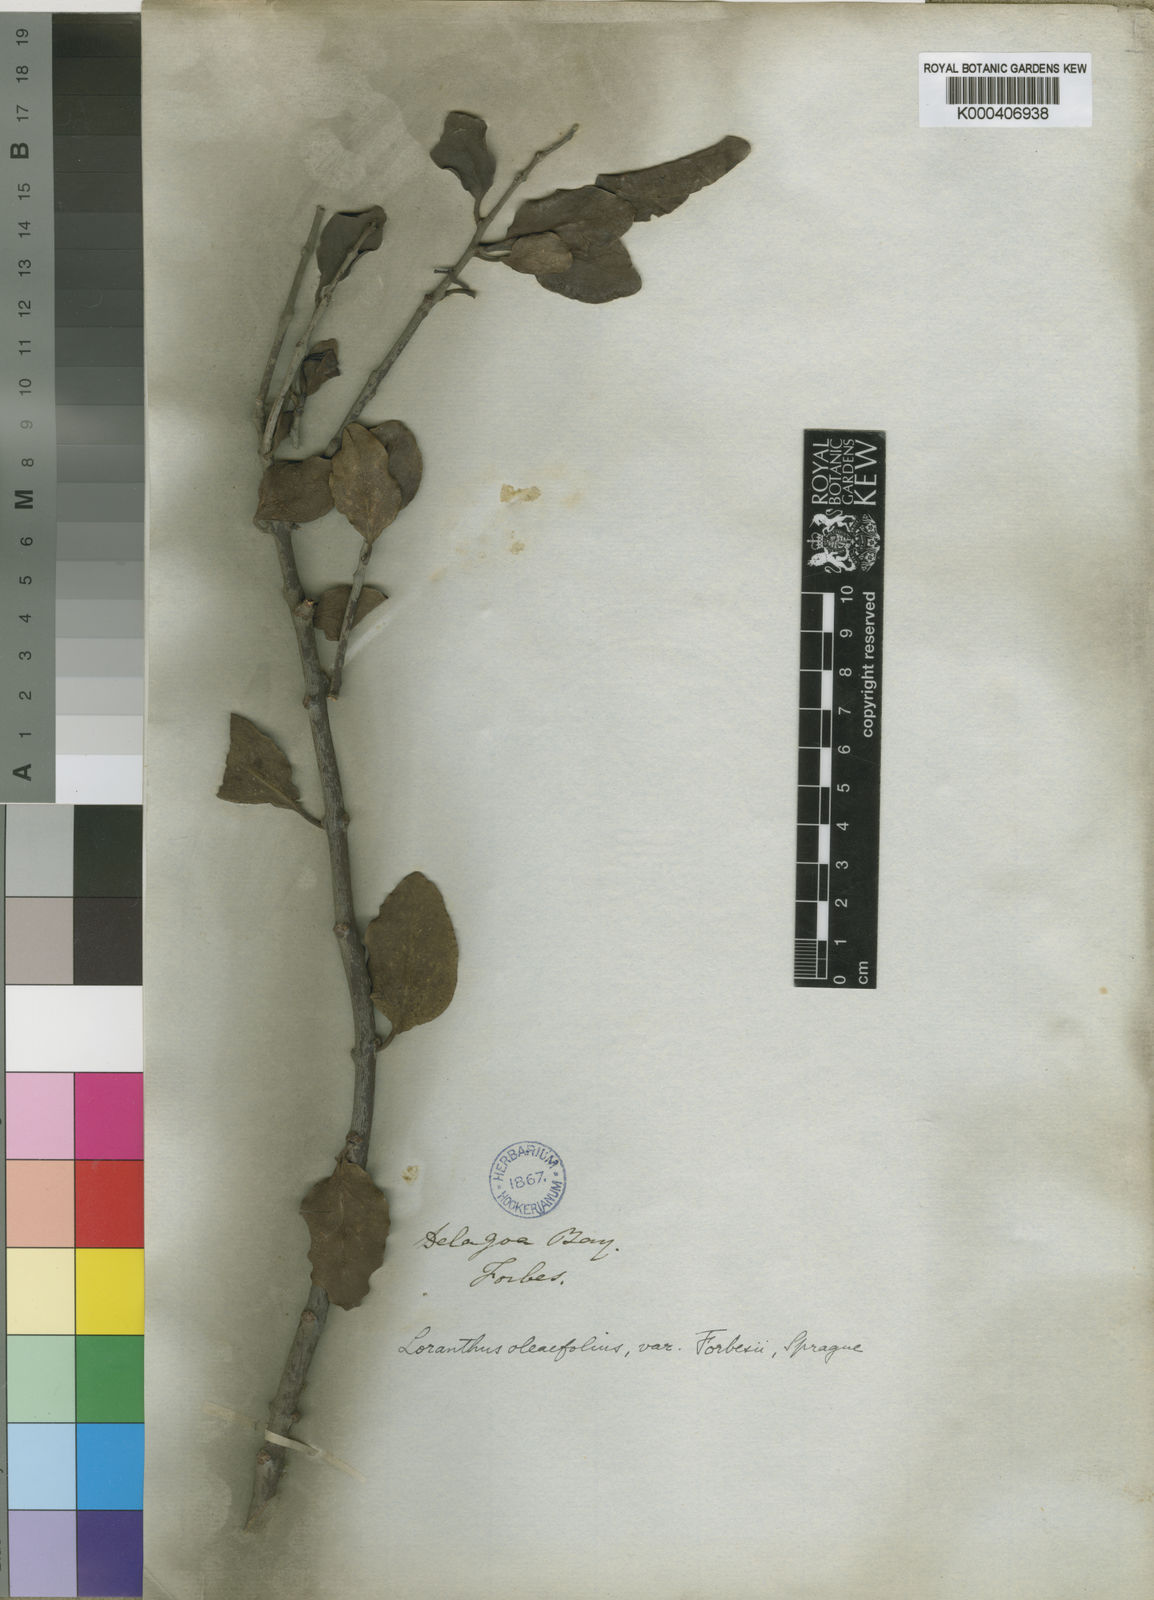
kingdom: Plantae
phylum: Tracheophyta
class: Magnoliopsida
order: Santalales
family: Loranthaceae
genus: Tapinanthus
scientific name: Tapinanthus forbesii
